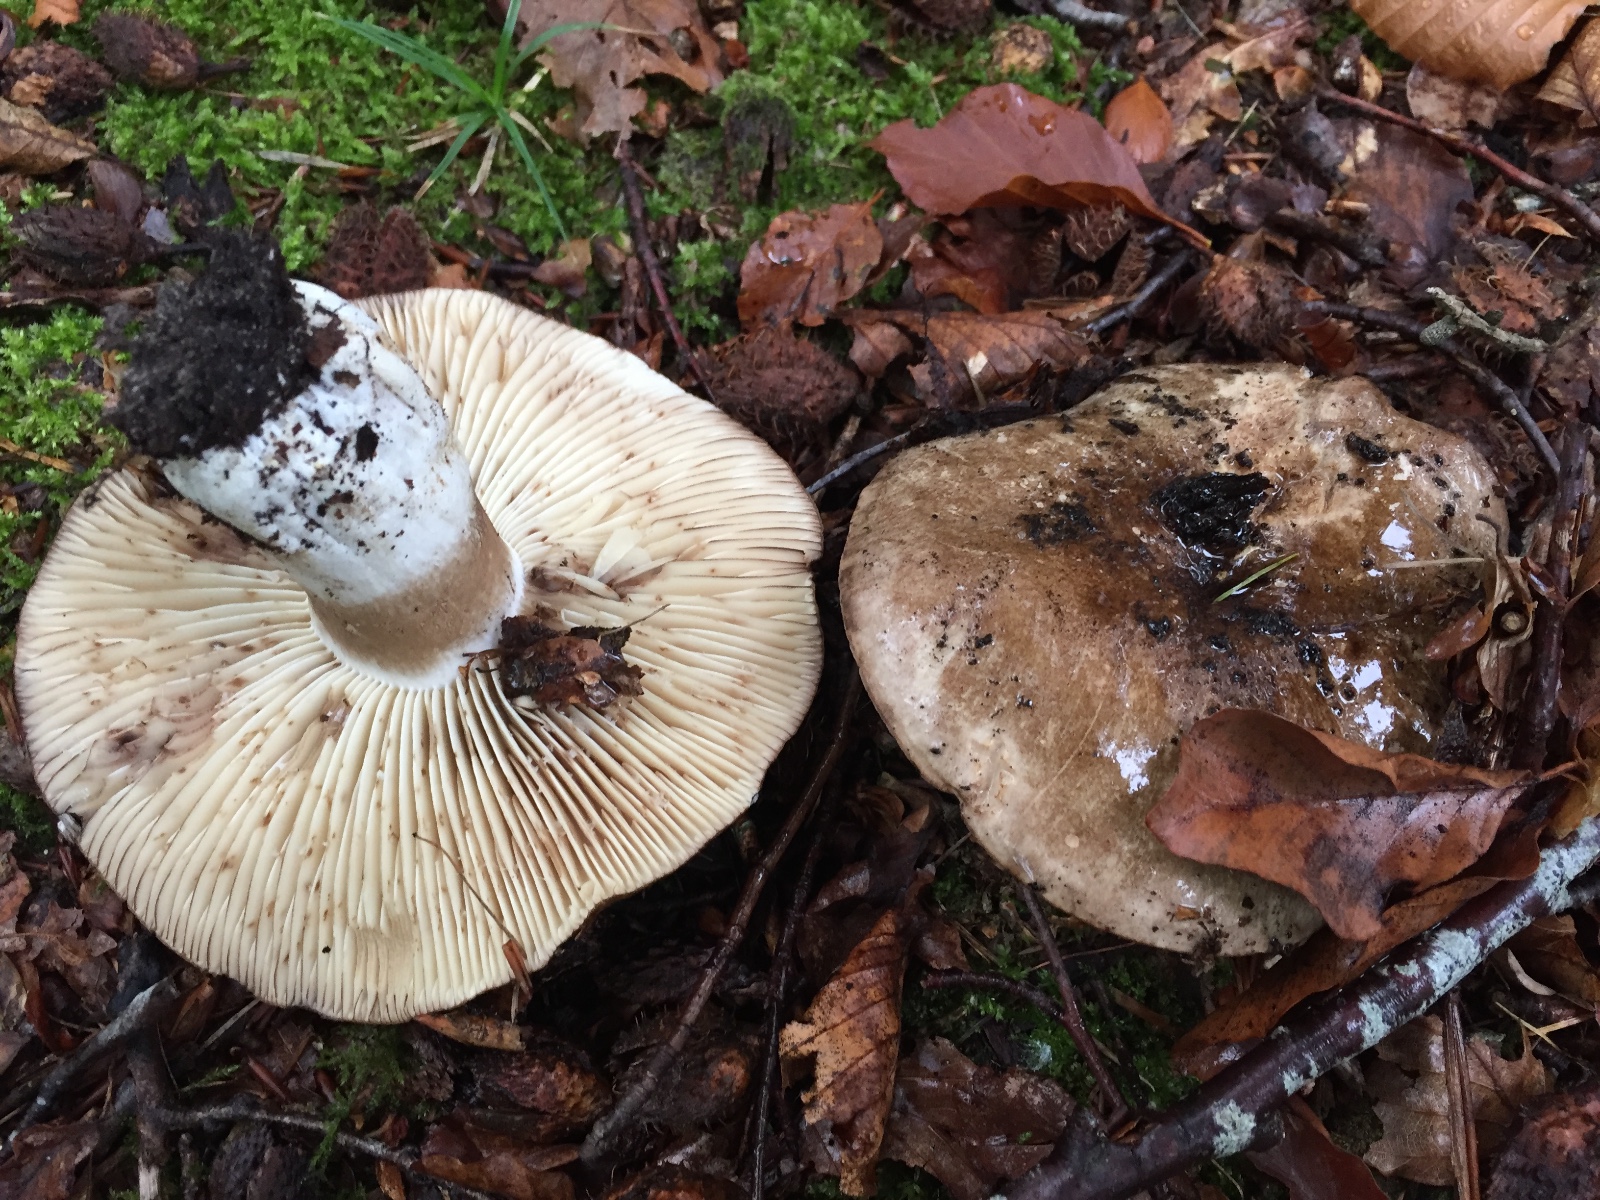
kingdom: Fungi
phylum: Basidiomycota
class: Agaricomycetes
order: Russulales
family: Russulaceae
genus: Russula
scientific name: Russula adusta
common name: sværtende skørhat
